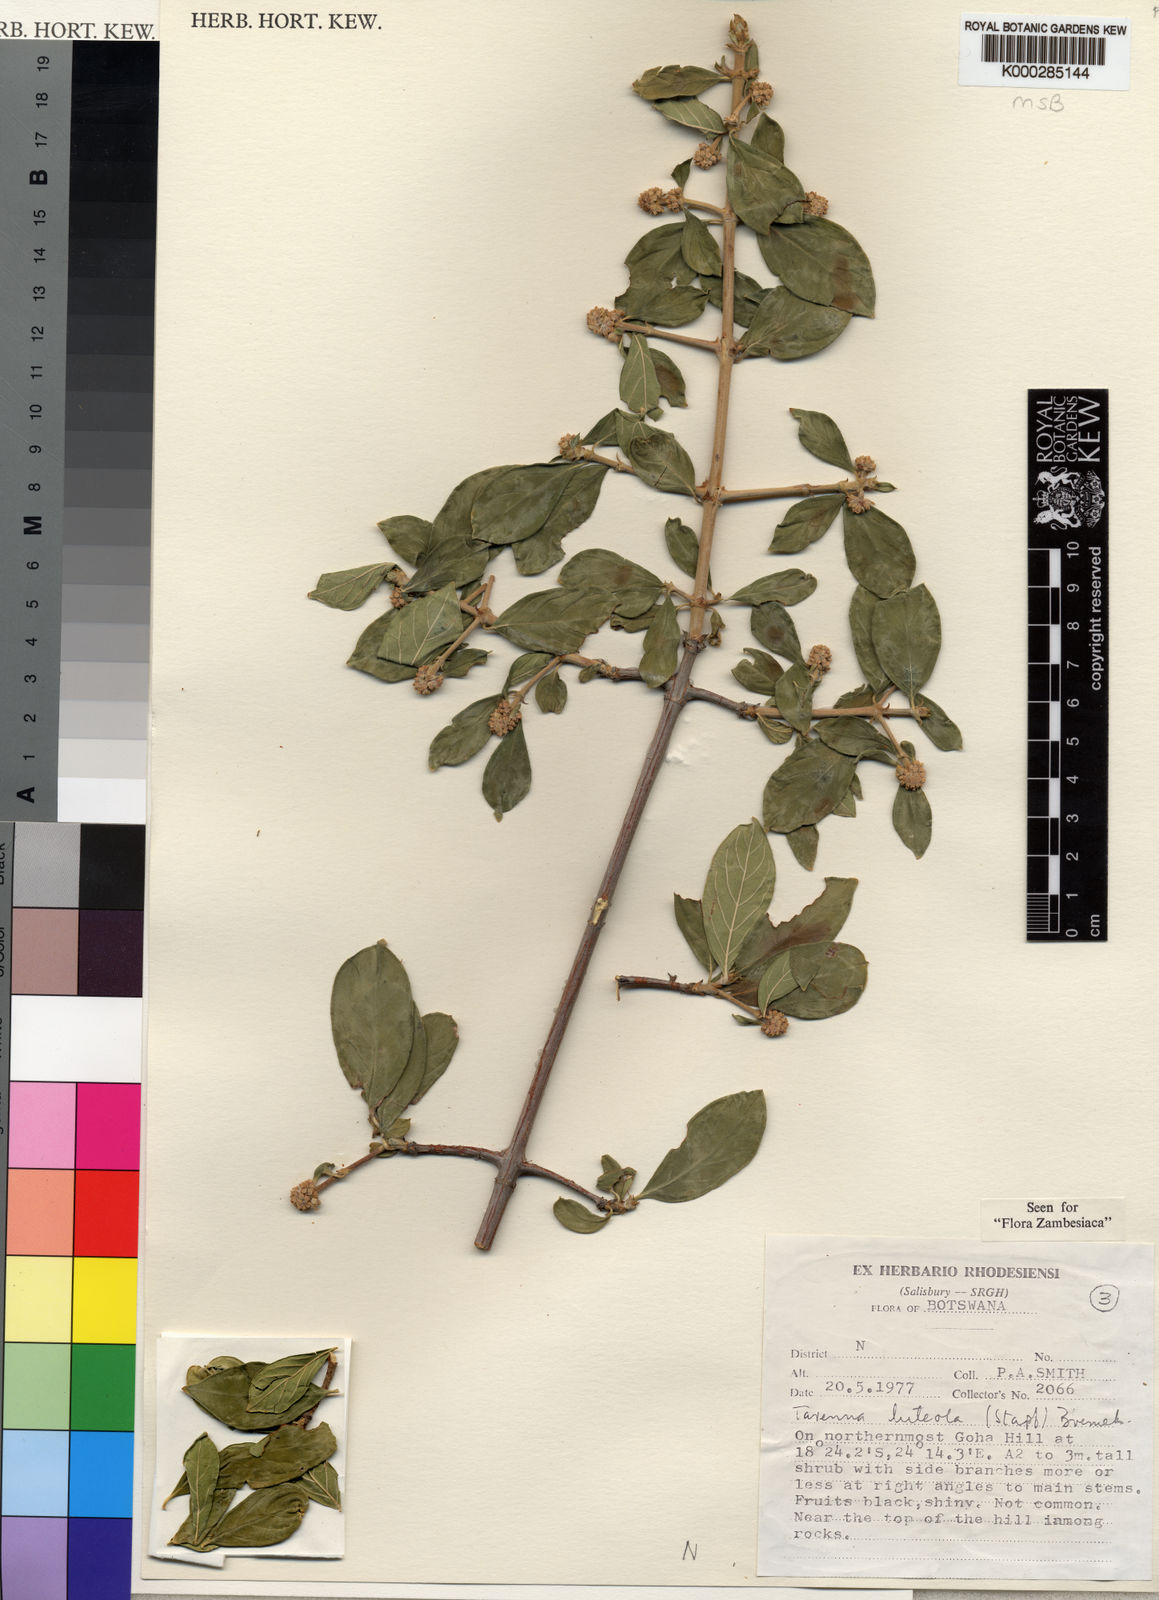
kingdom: Plantae
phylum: Tracheophyta
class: Magnoliopsida
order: Gentianales
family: Rubiaceae
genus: Tarenna
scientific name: Tarenna luteola
